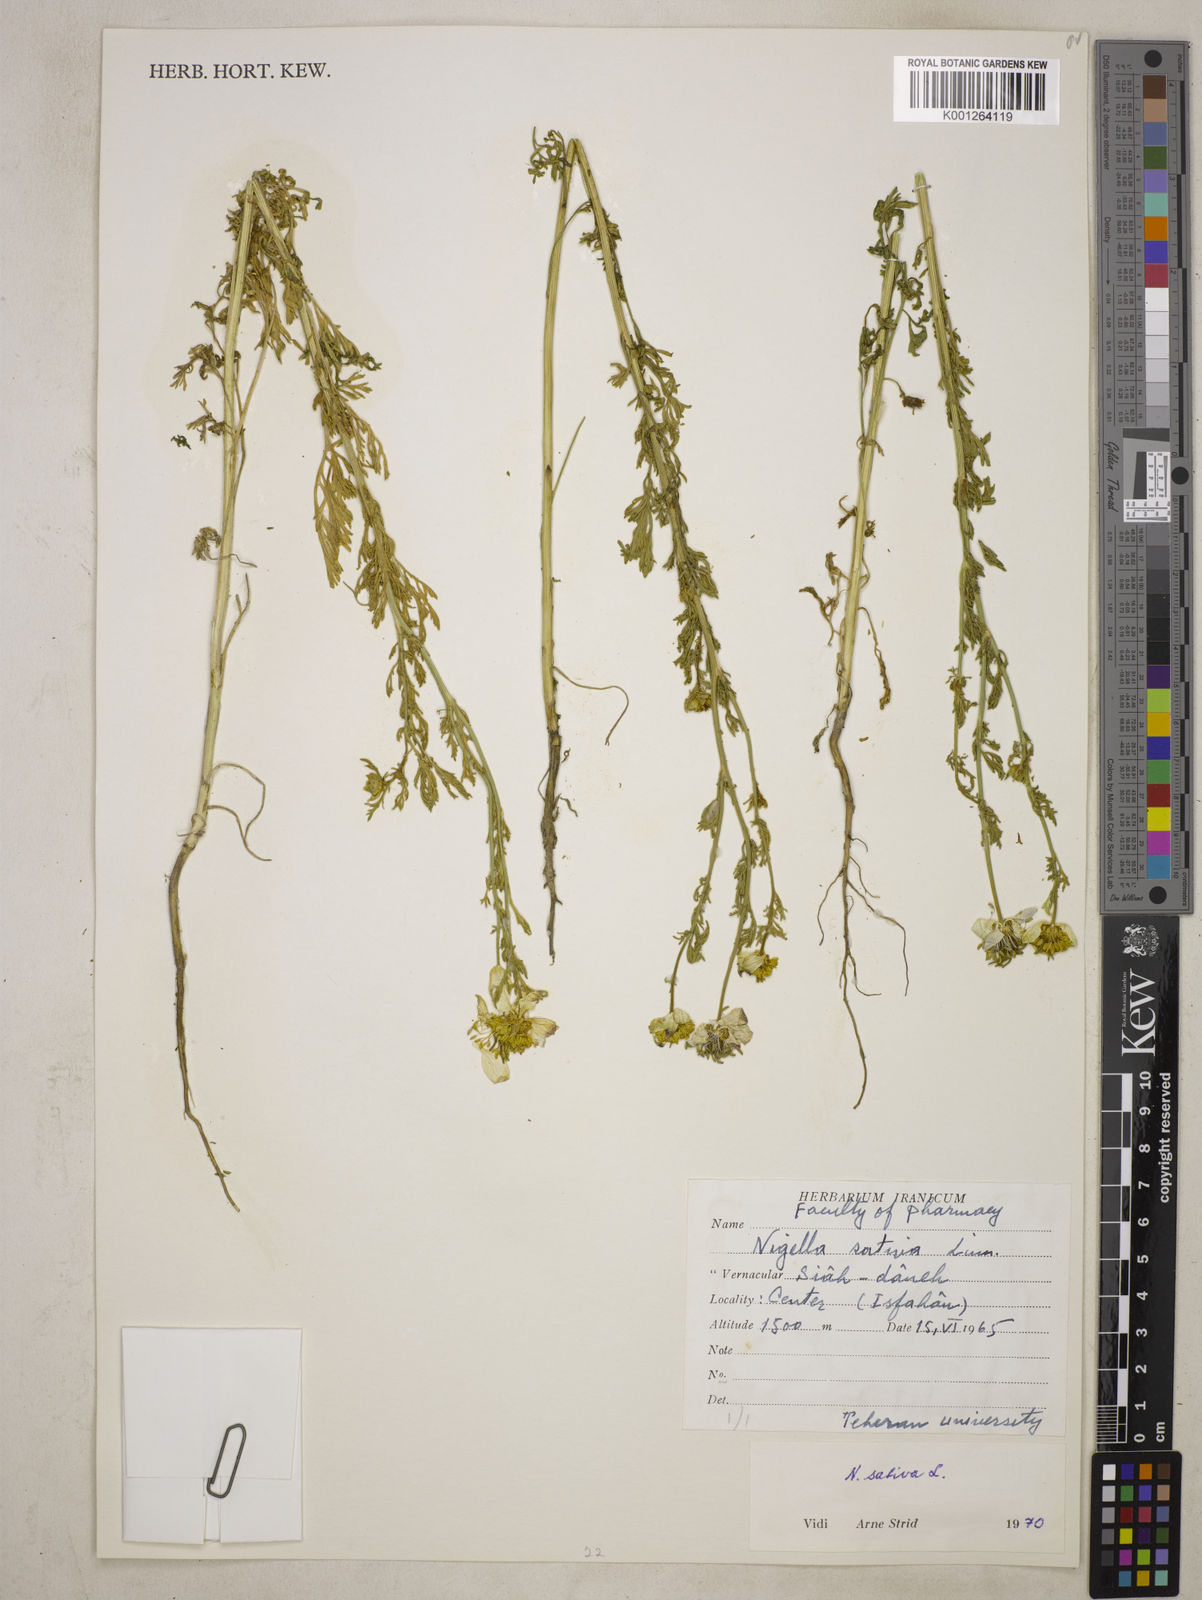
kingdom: Plantae
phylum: Tracheophyta
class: Magnoliopsida
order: Ranunculales
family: Ranunculaceae
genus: Nigella
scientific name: Nigella sativa
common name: Black-cumin
